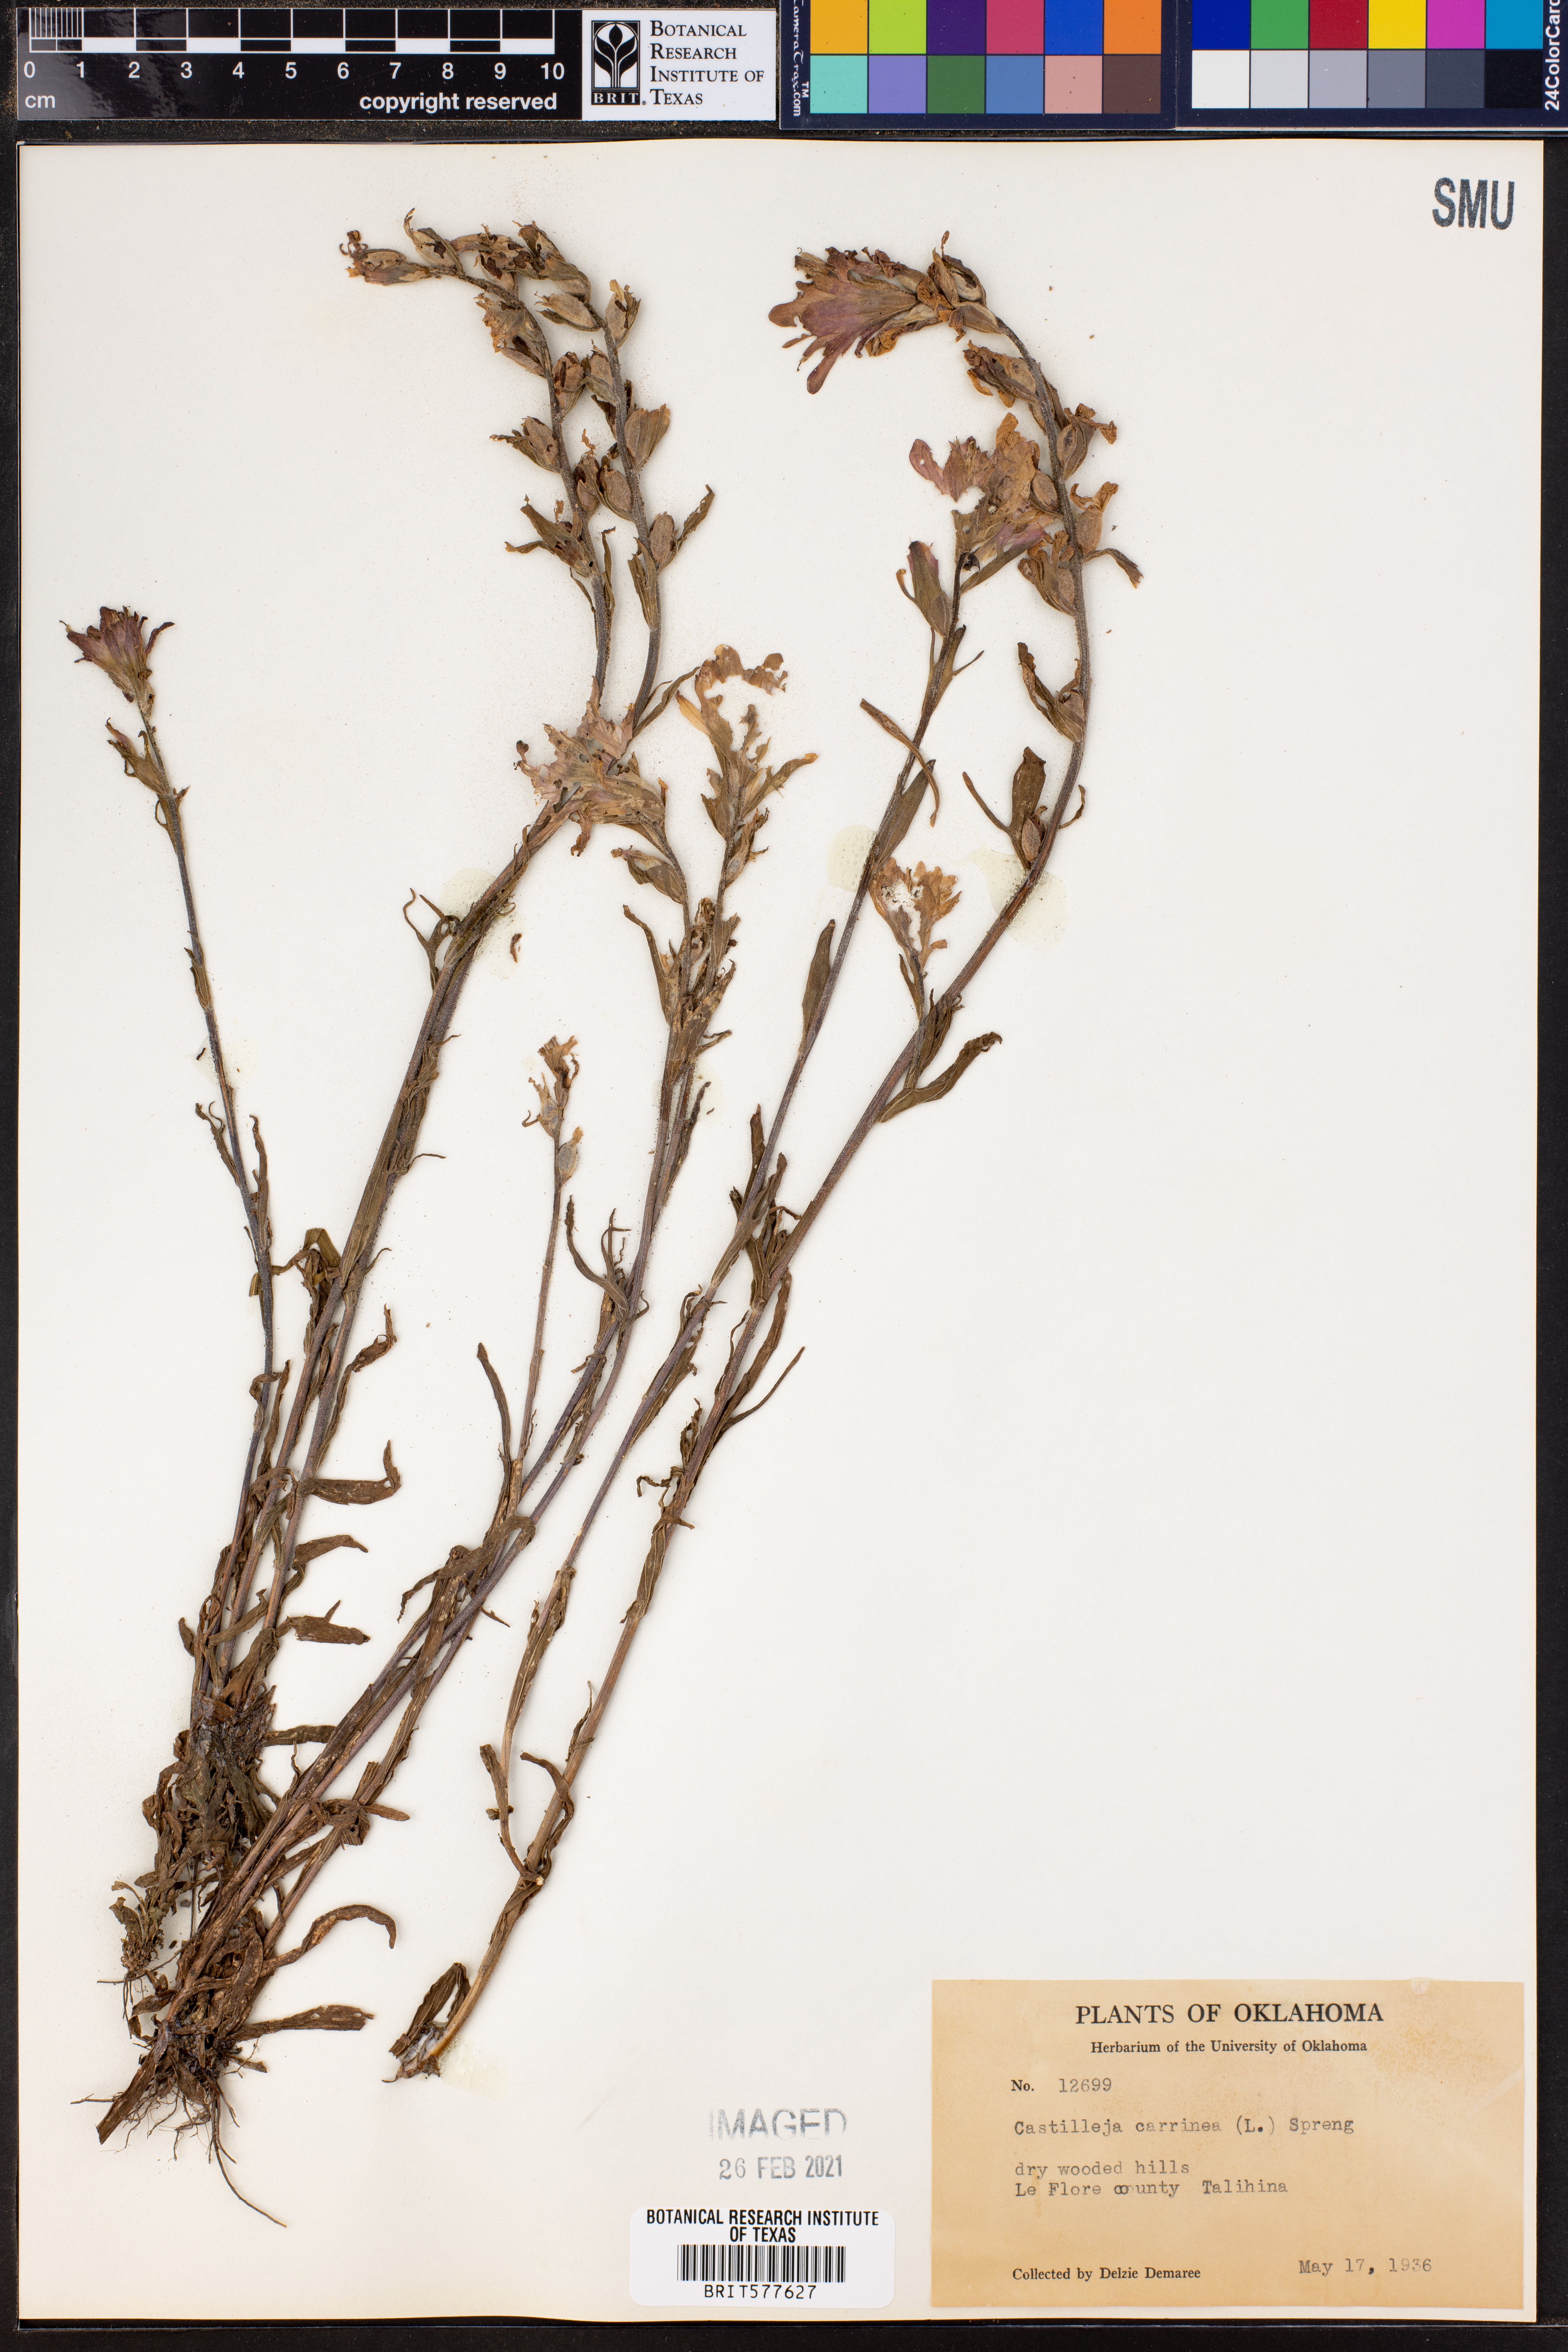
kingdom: Plantae
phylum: Tracheophyta
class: Magnoliopsida
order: Lamiales
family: Orobanchaceae
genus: Castilleja
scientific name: Castilleja coccinea
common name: Scarlet paintbrush
